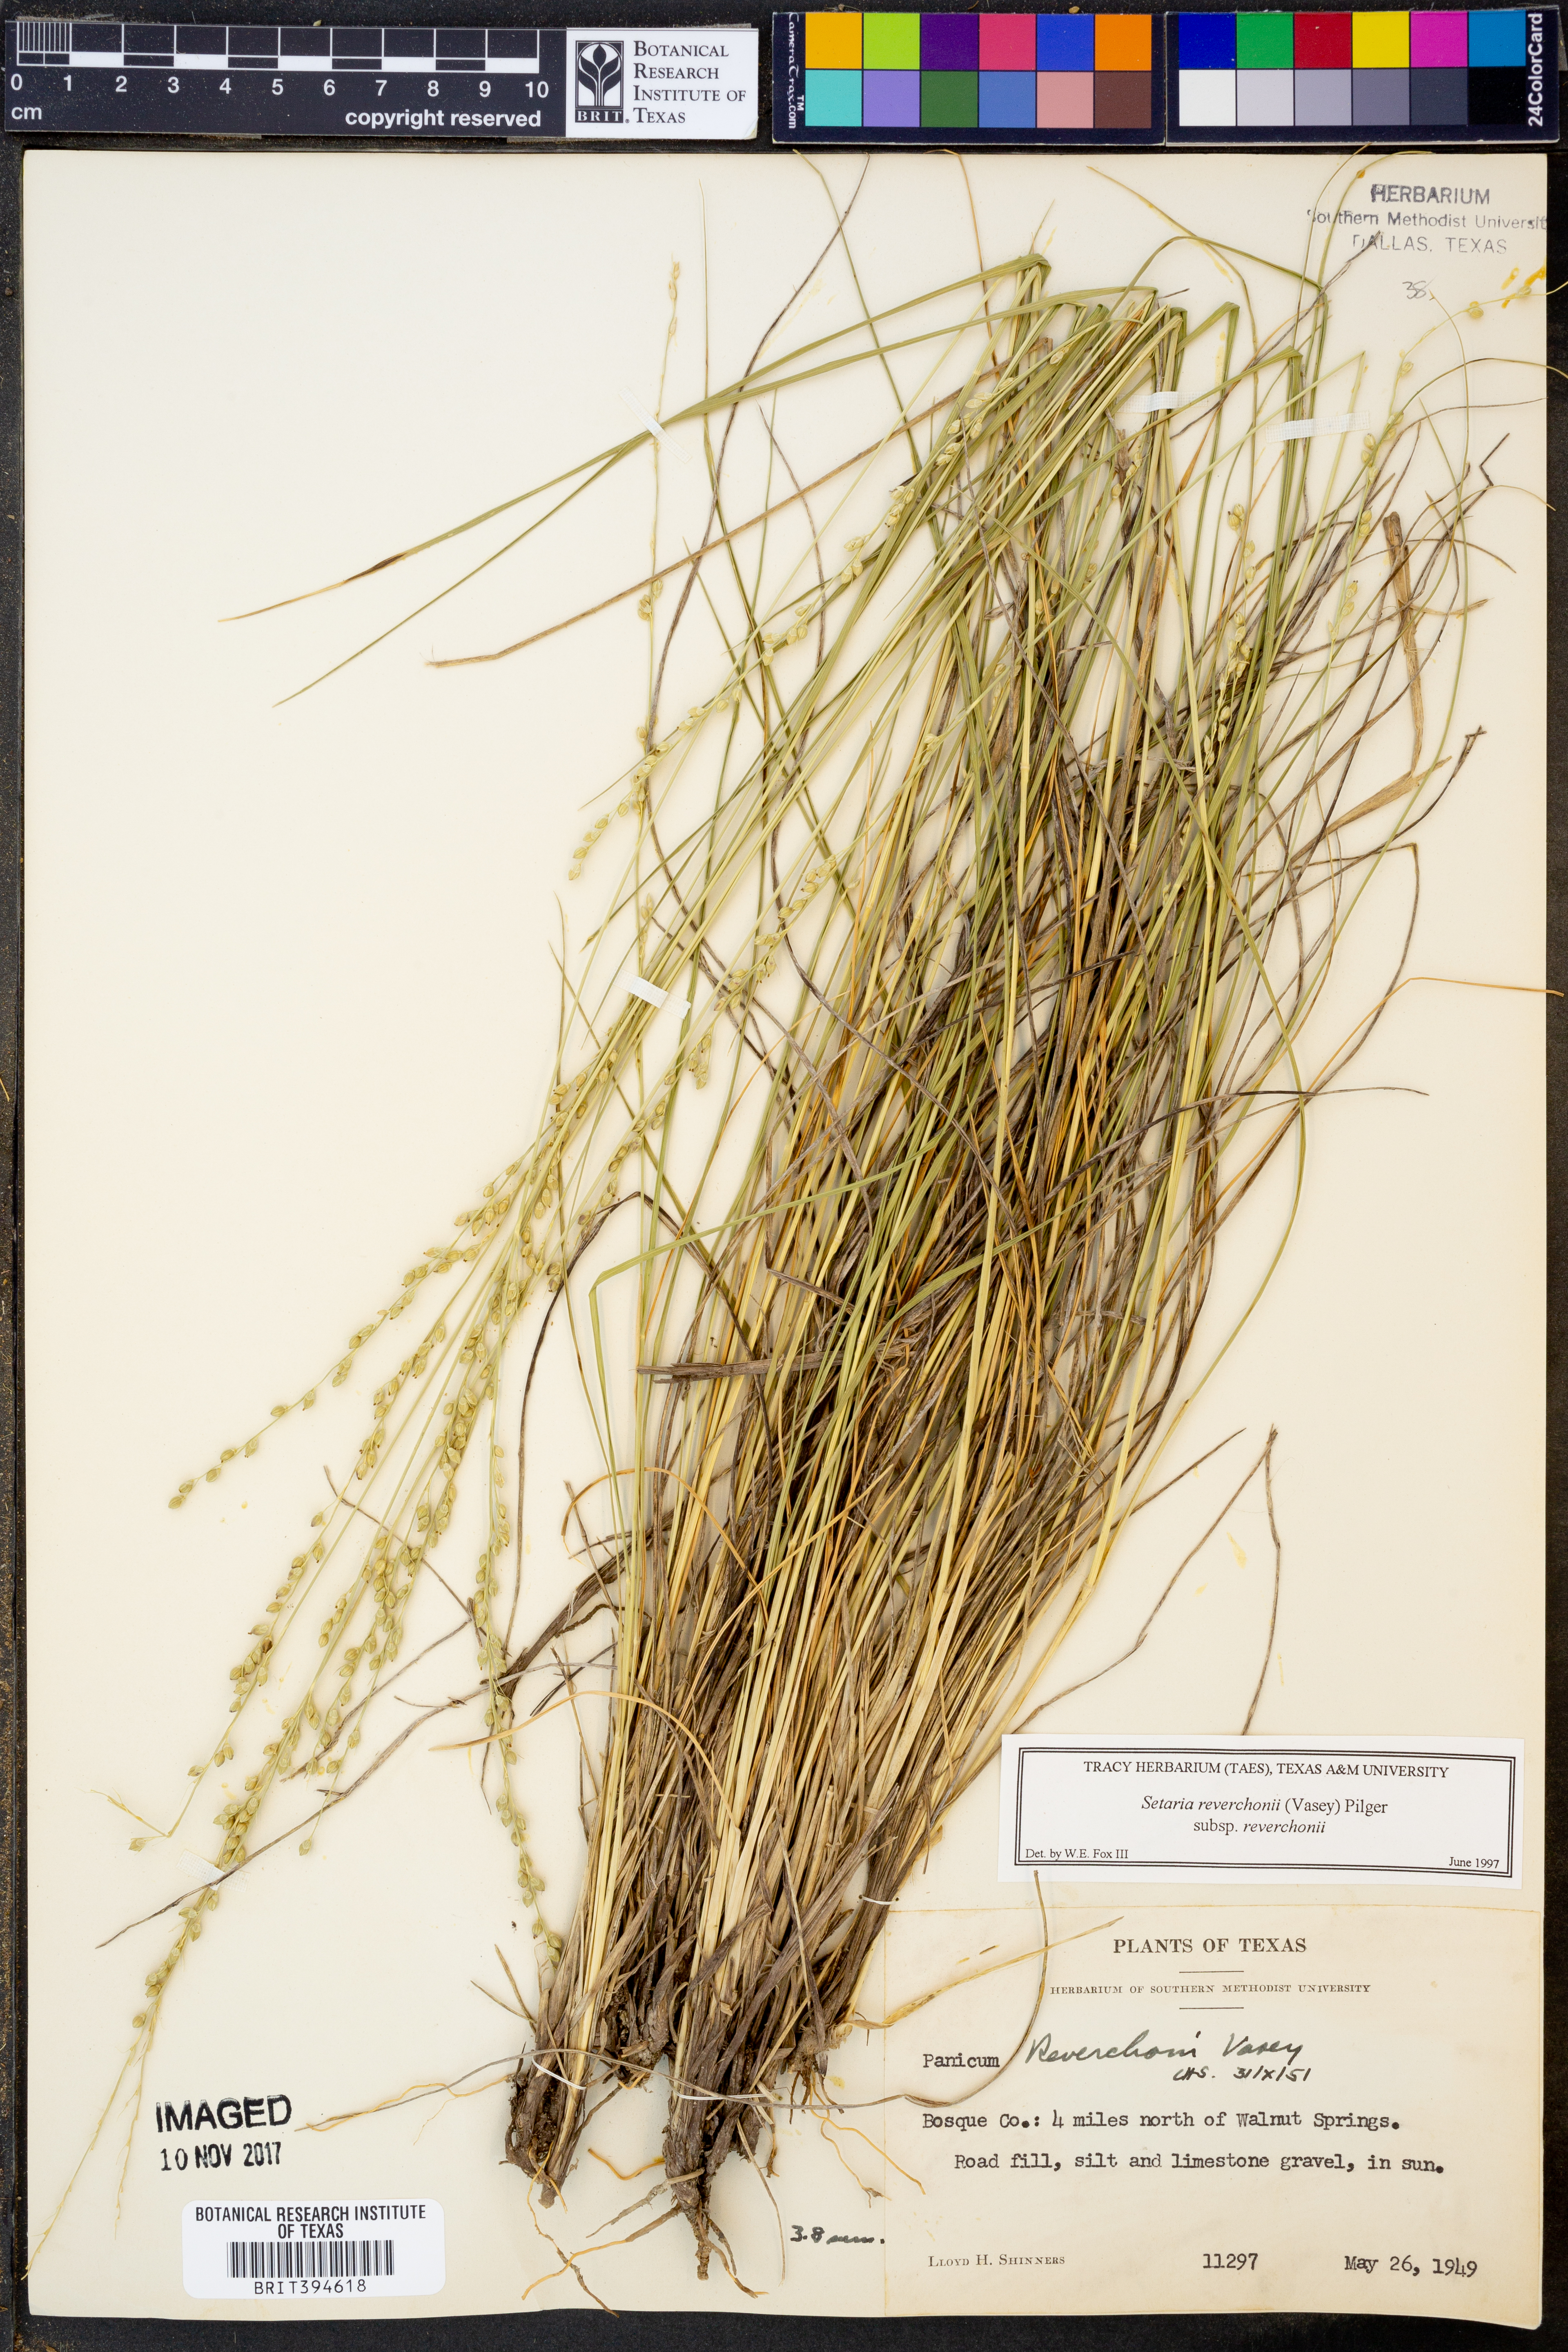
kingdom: Plantae
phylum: Tracheophyta
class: Liliopsida
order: Poales
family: Poaceae
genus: Setaria
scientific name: Setaria reverchonii
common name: Reverchon's bristle grass
